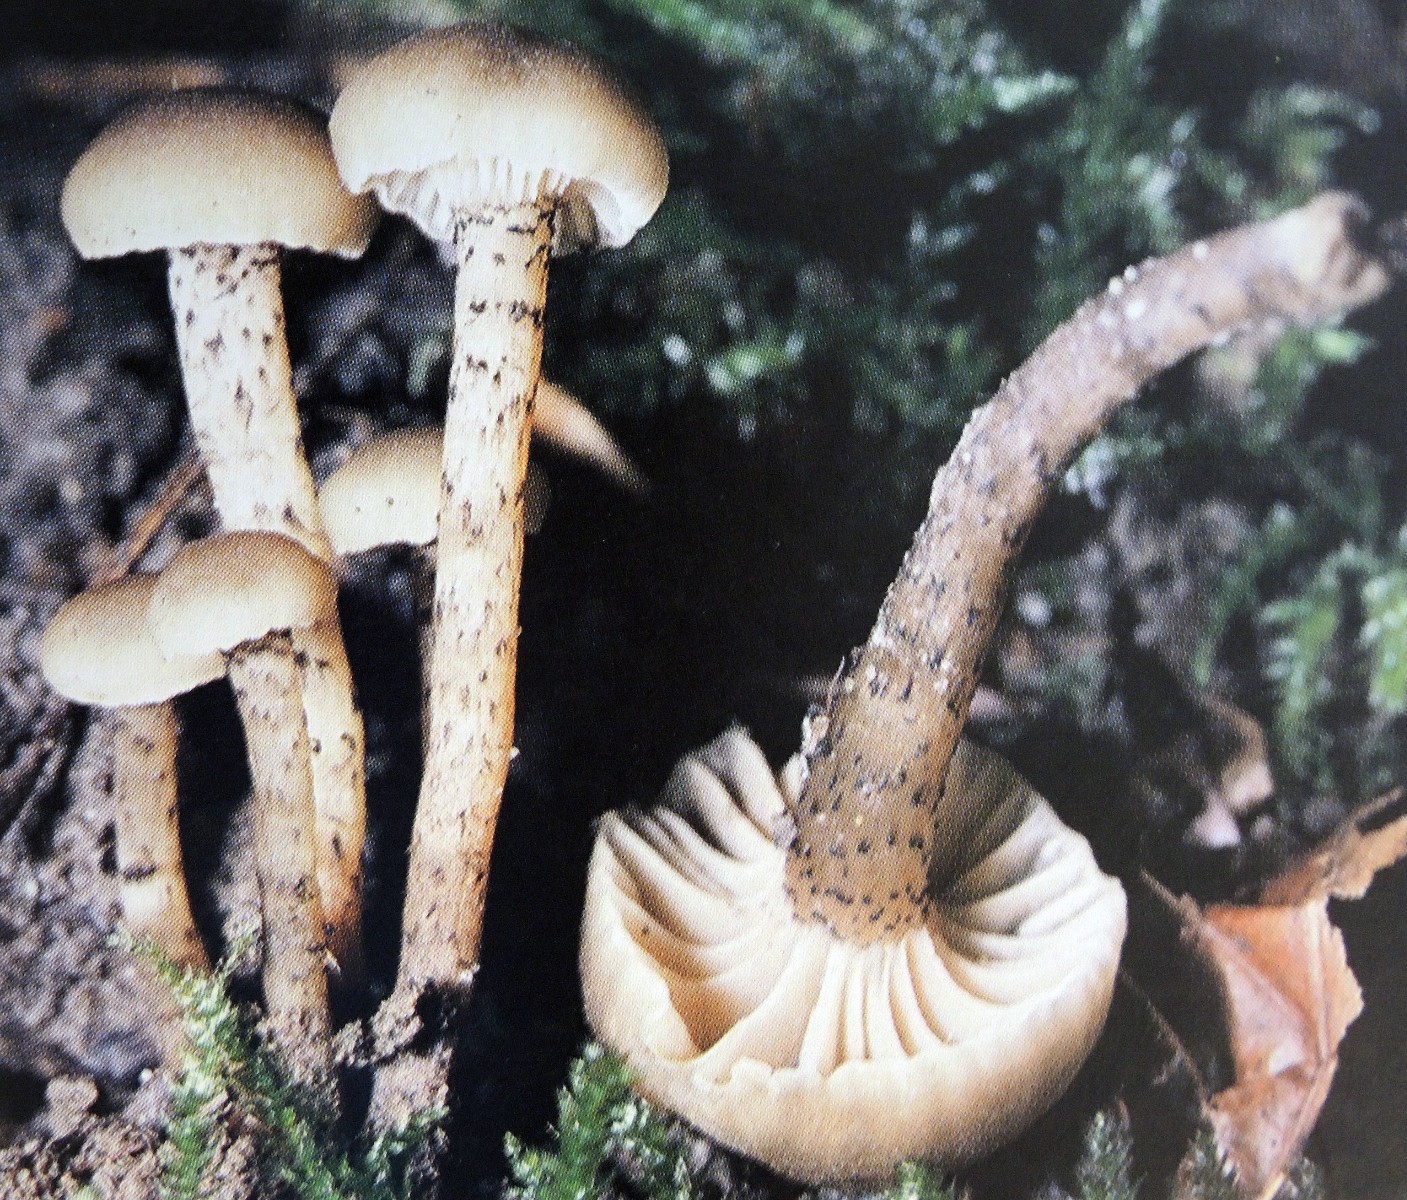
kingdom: Fungi
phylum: Basidiomycota
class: Agaricomycetes
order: Agaricales
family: Clavariaceae
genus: Hodophilus
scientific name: Hodophilus atropunctus
